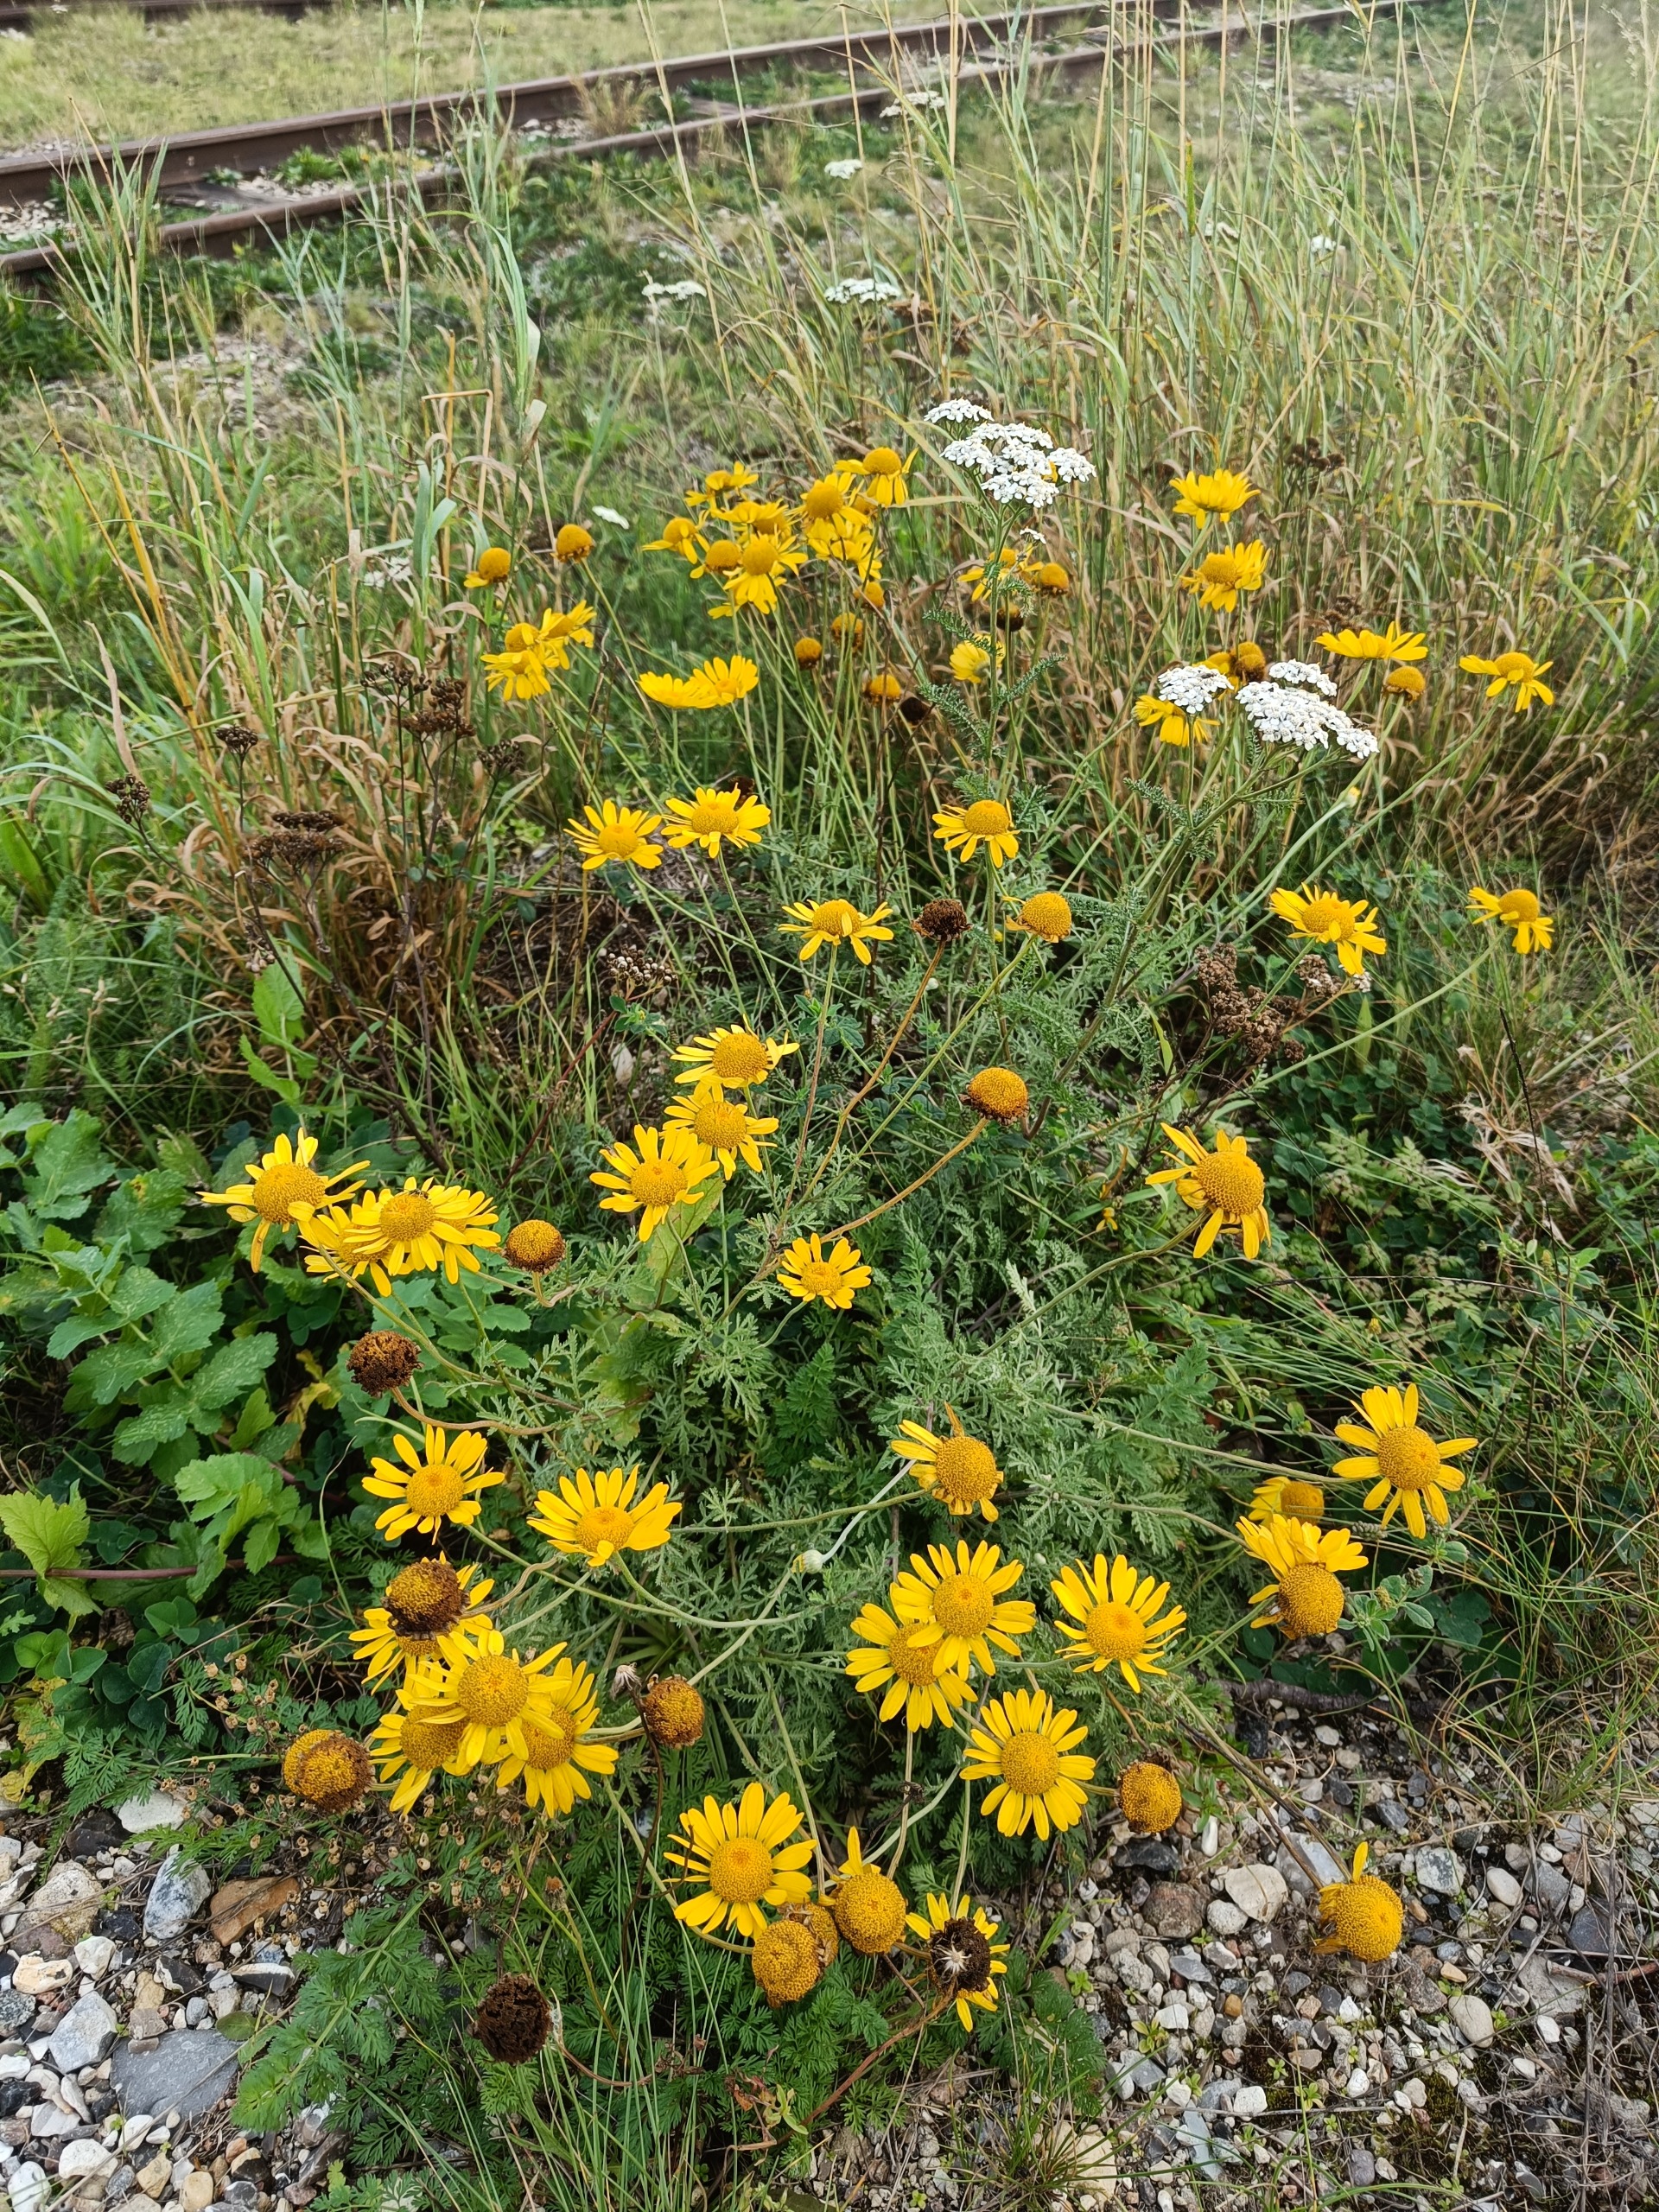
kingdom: Plantae
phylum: Tracheophyta
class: Magnoliopsida
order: Asterales
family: Asteraceae
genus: Cota
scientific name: Cota tinctoria
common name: Farve-gåseurt
